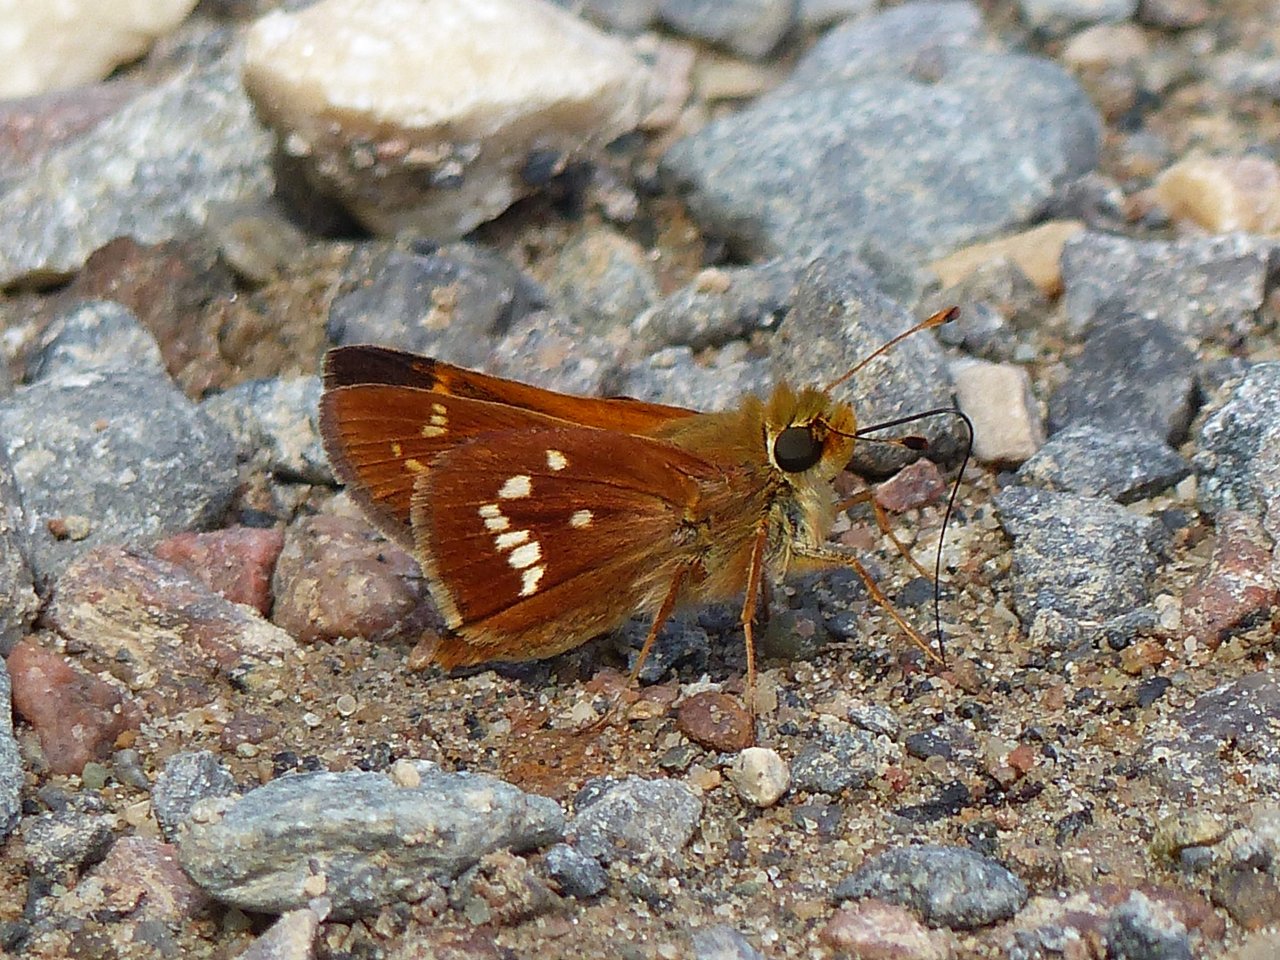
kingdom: Animalia
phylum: Arthropoda
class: Insecta
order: Lepidoptera
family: Hesperiidae
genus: Hesperia
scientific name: Hesperia leonardus
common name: Leonard's Skipper
